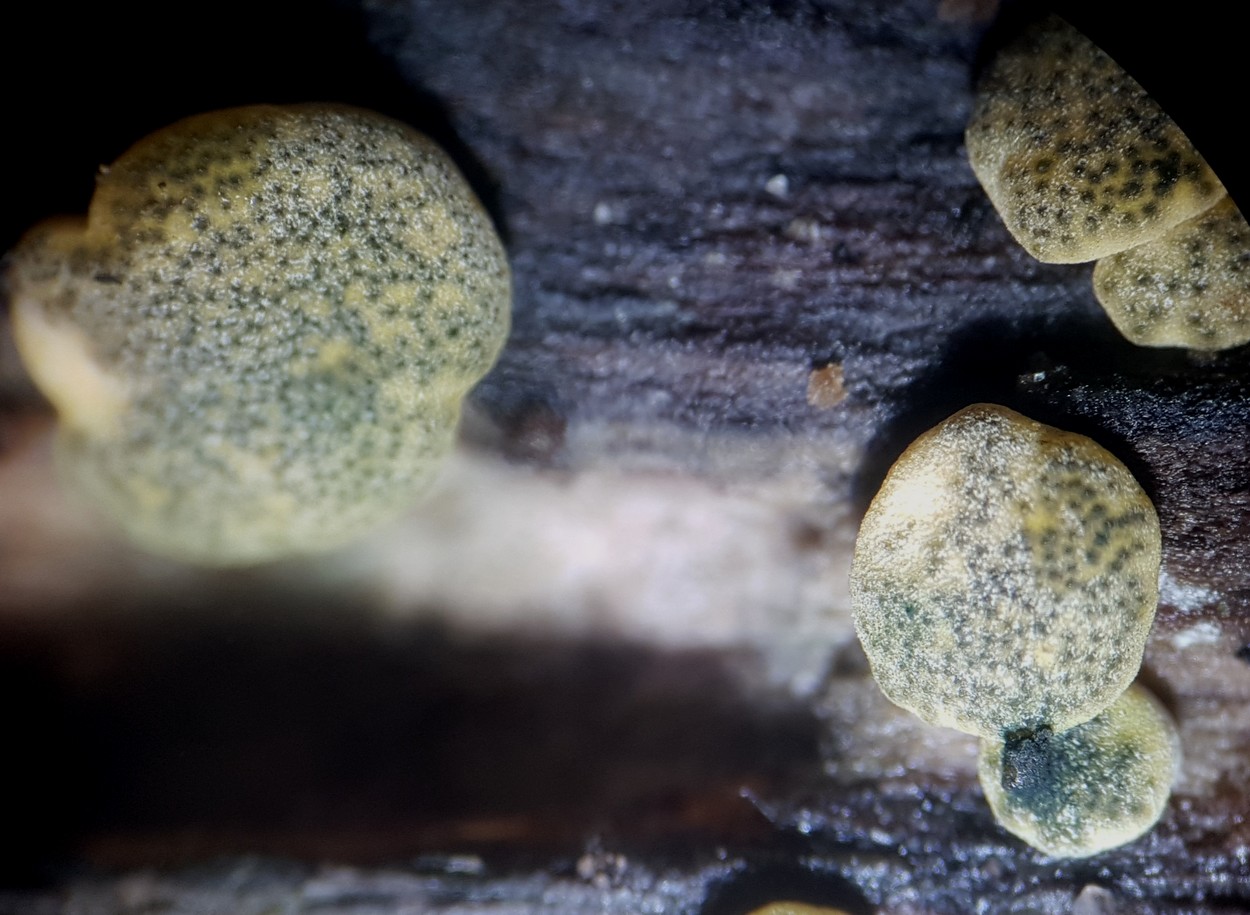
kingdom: Fungi
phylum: Ascomycota
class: Sordariomycetes
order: Hypocreales
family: Hypocreaceae
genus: Trichoderma
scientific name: Trichoderma aureoviride
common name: æggegul kødkerne
